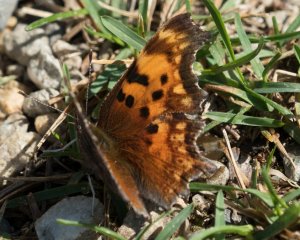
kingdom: Animalia
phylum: Arthropoda
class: Insecta
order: Lepidoptera
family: Nymphalidae
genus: Polygonia
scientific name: Polygonia gracilis
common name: Hoary Comma
